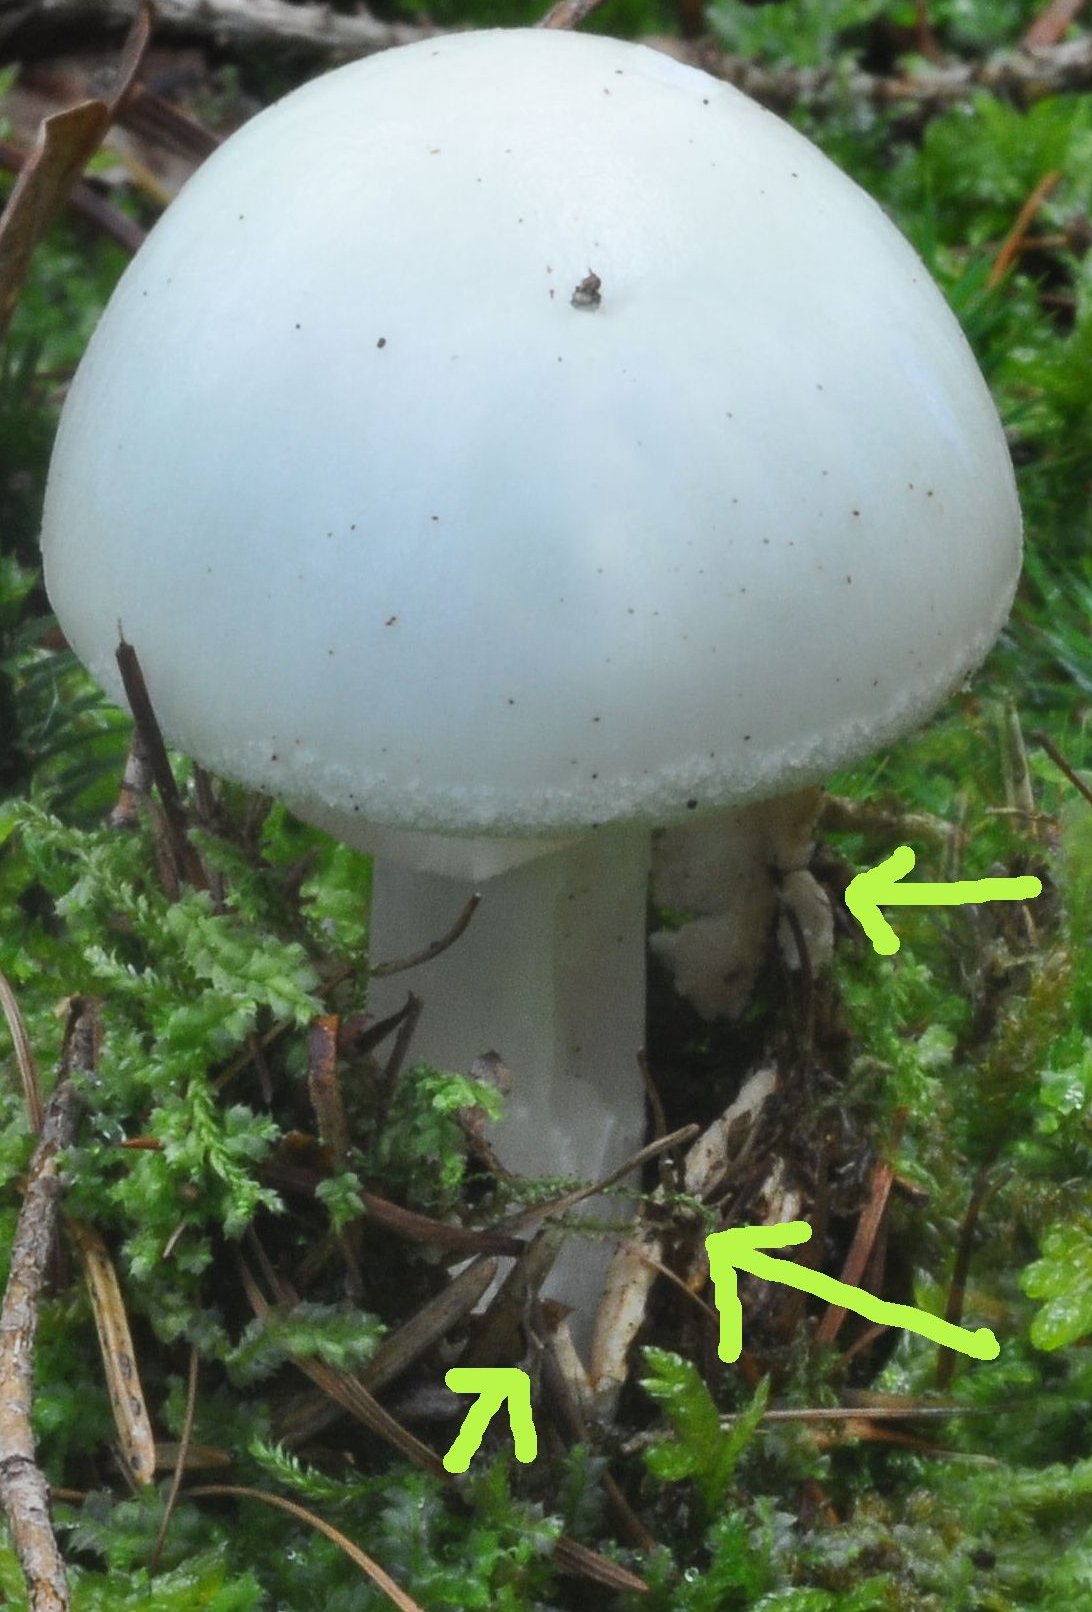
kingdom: Fungi
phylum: Basidiomycota
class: Agaricomycetes
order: Agaricales
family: Amanitaceae
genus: Amanita
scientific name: Amanita phalloides
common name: Death cap
